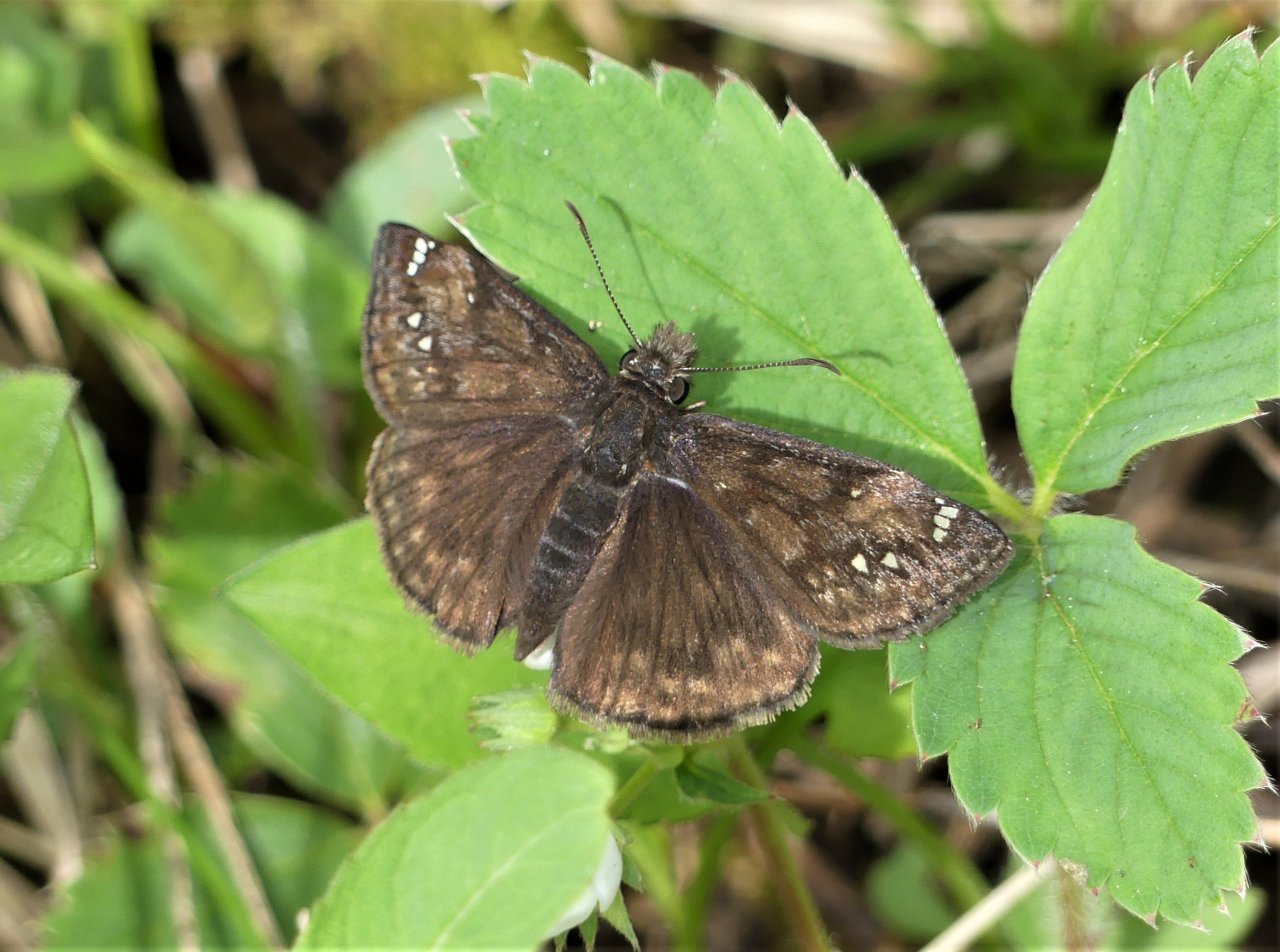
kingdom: Animalia
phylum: Arthropoda
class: Insecta
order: Lepidoptera
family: Hesperiidae
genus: Gesta
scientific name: Gesta
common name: Juvenal's Duskywing
